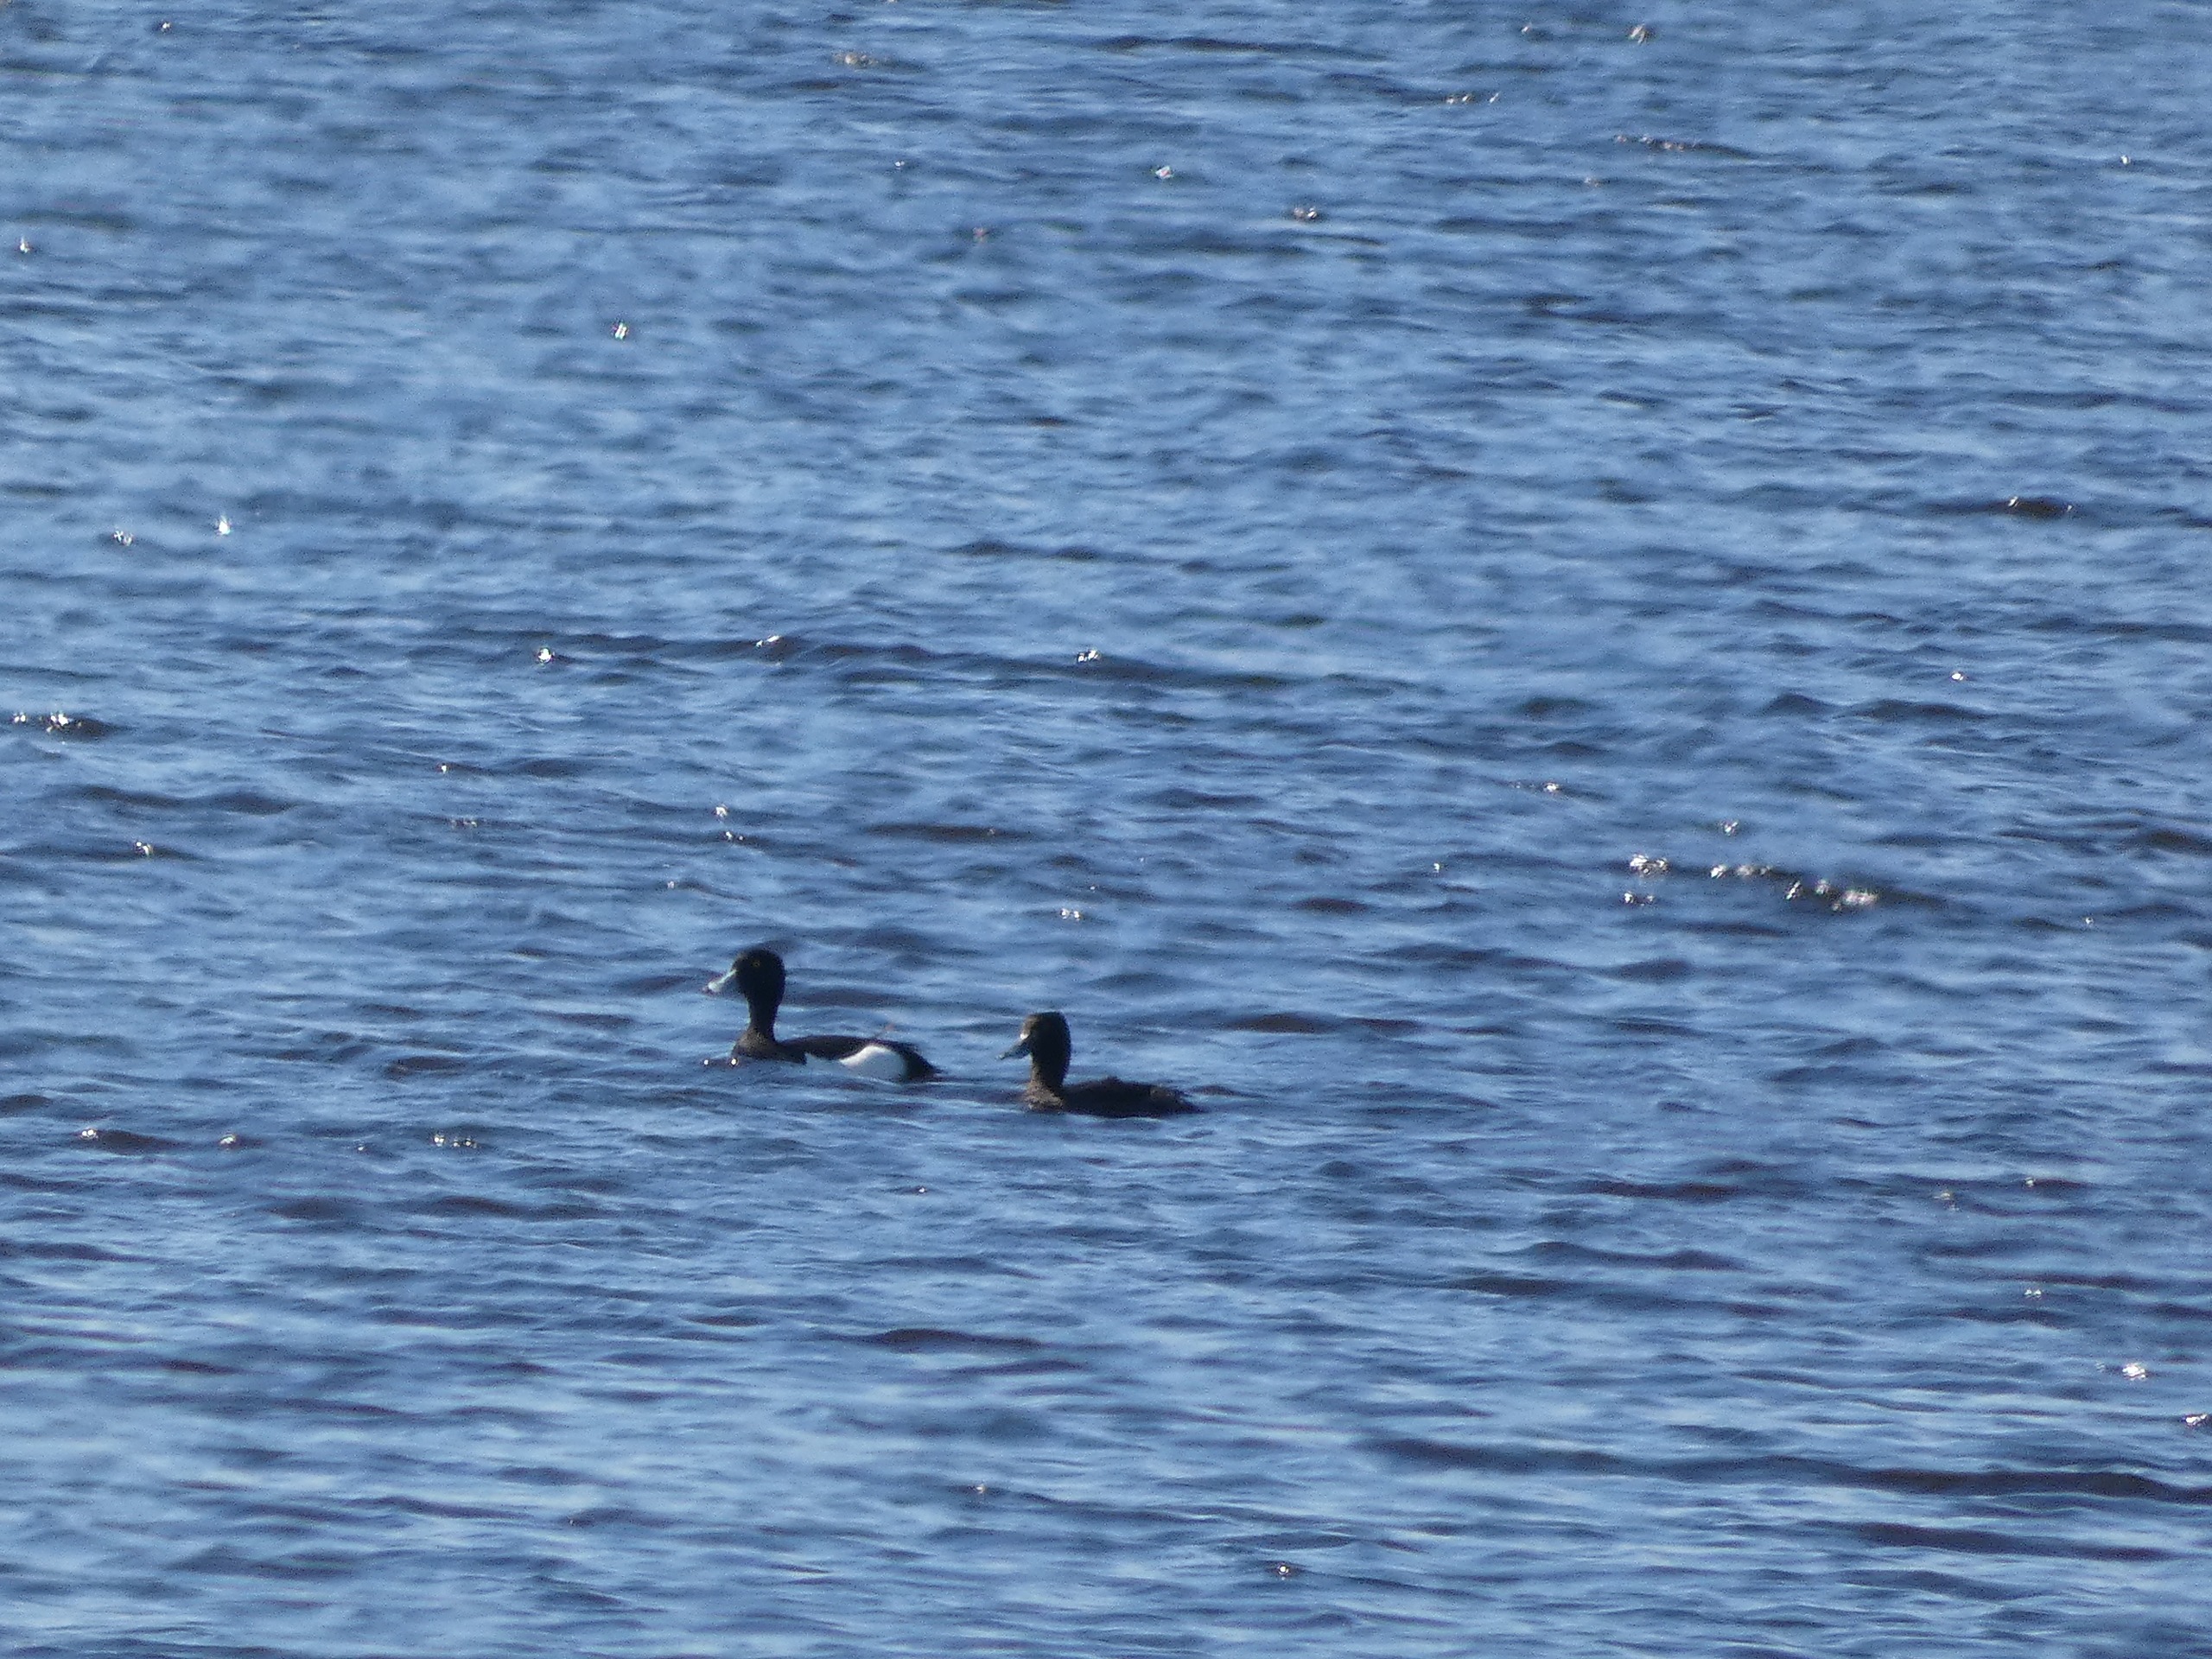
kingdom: Animalia
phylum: Chordata
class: Aves
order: Anseriformes
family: Anatidae
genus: Aythya
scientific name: Aythya fuligula
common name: Troldand
